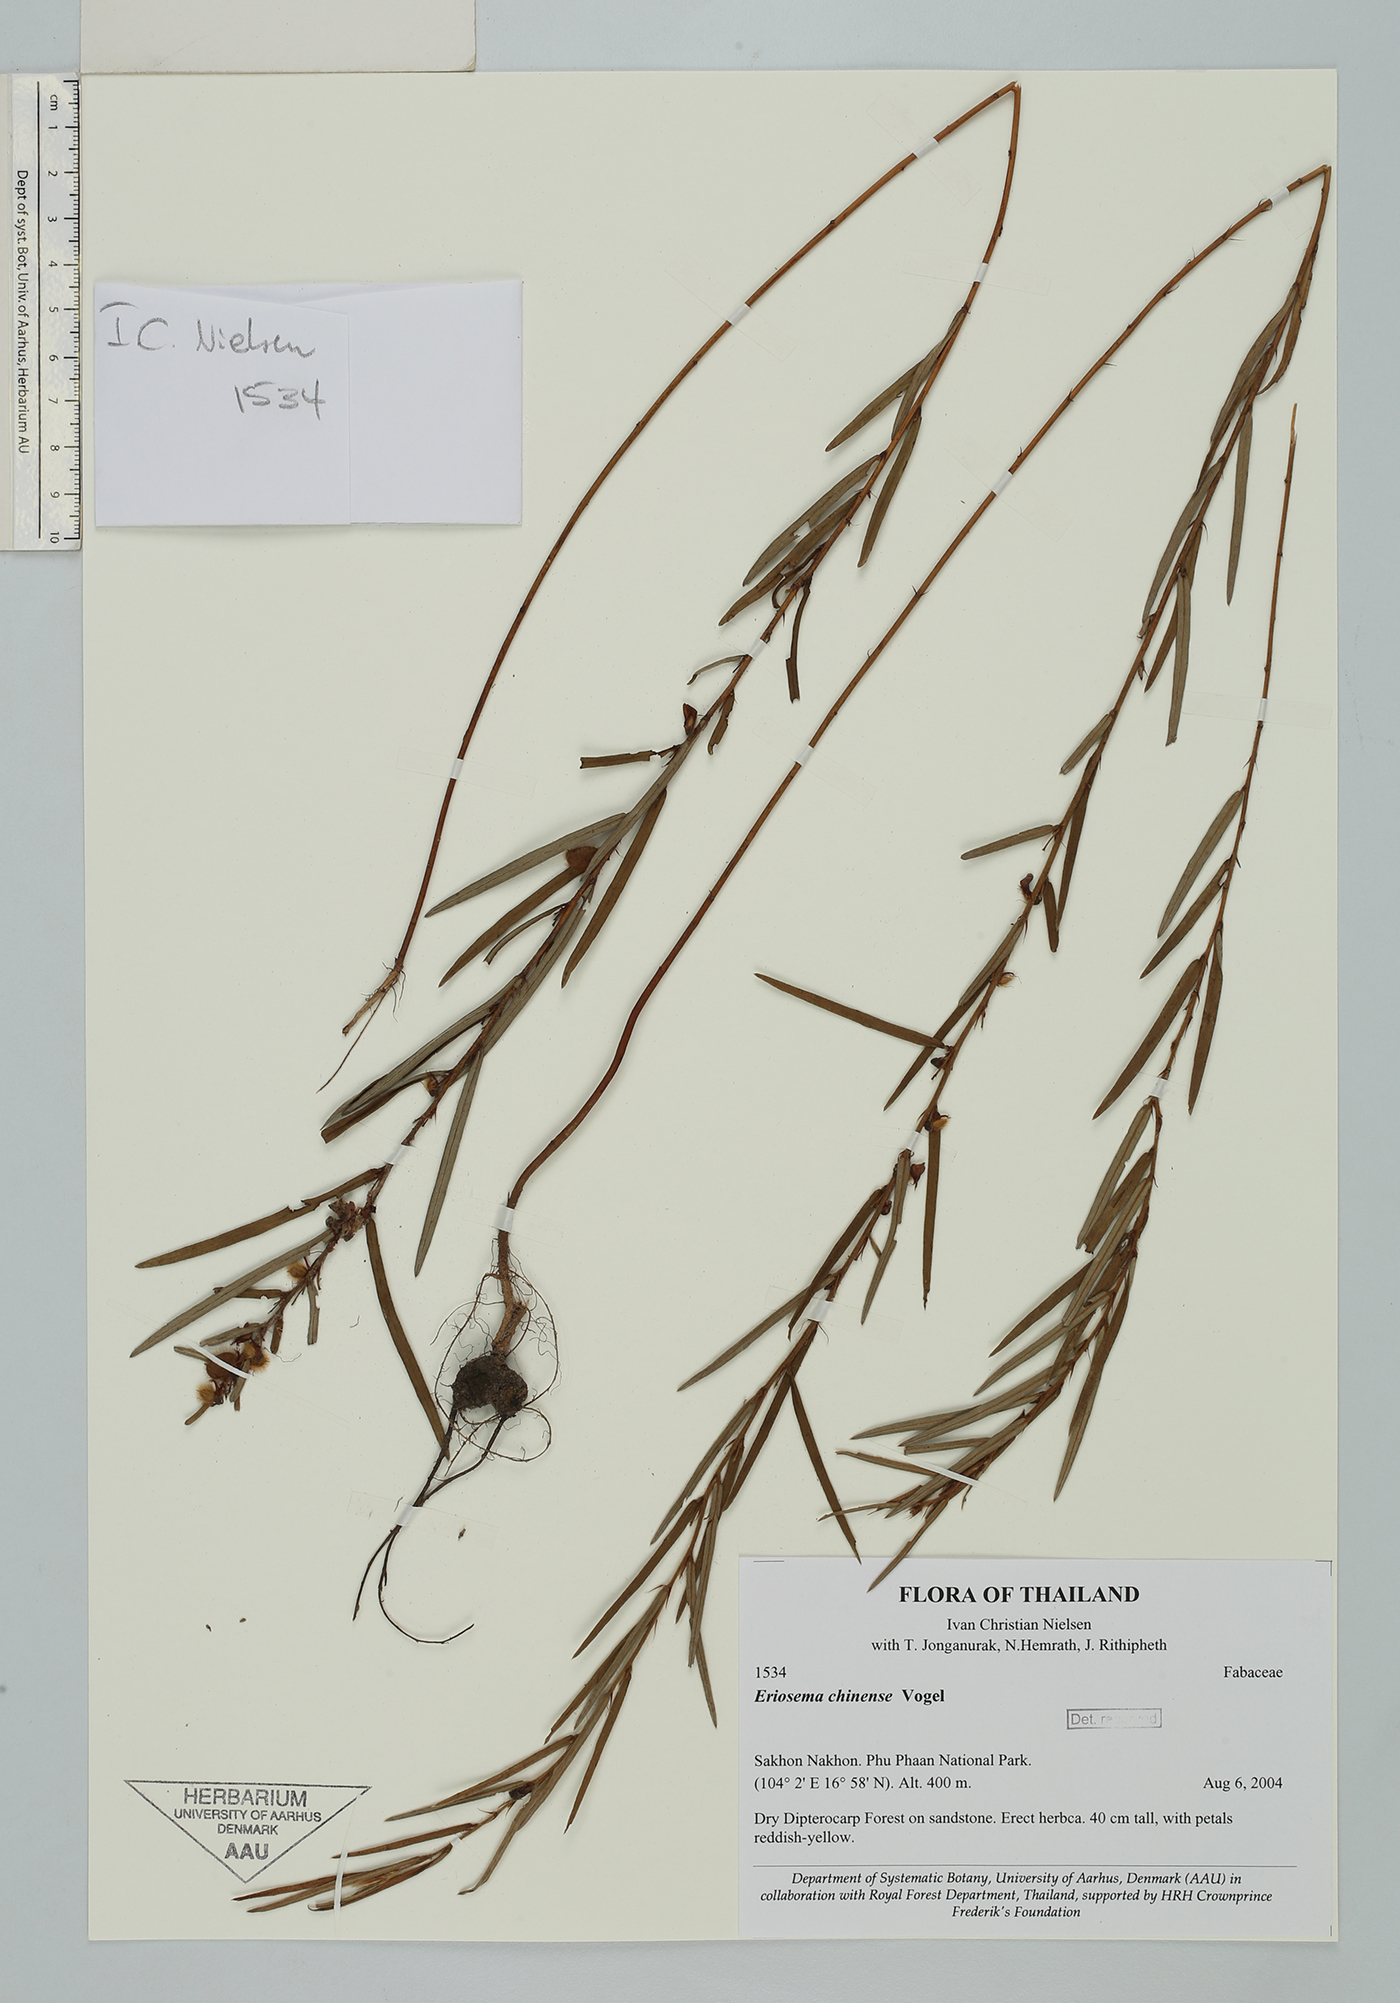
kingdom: Plantae
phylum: Tracheophyta
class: Magnoliopsida
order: Fabales
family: Fabaceae
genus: Eriosema
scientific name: Eriosema chinense
